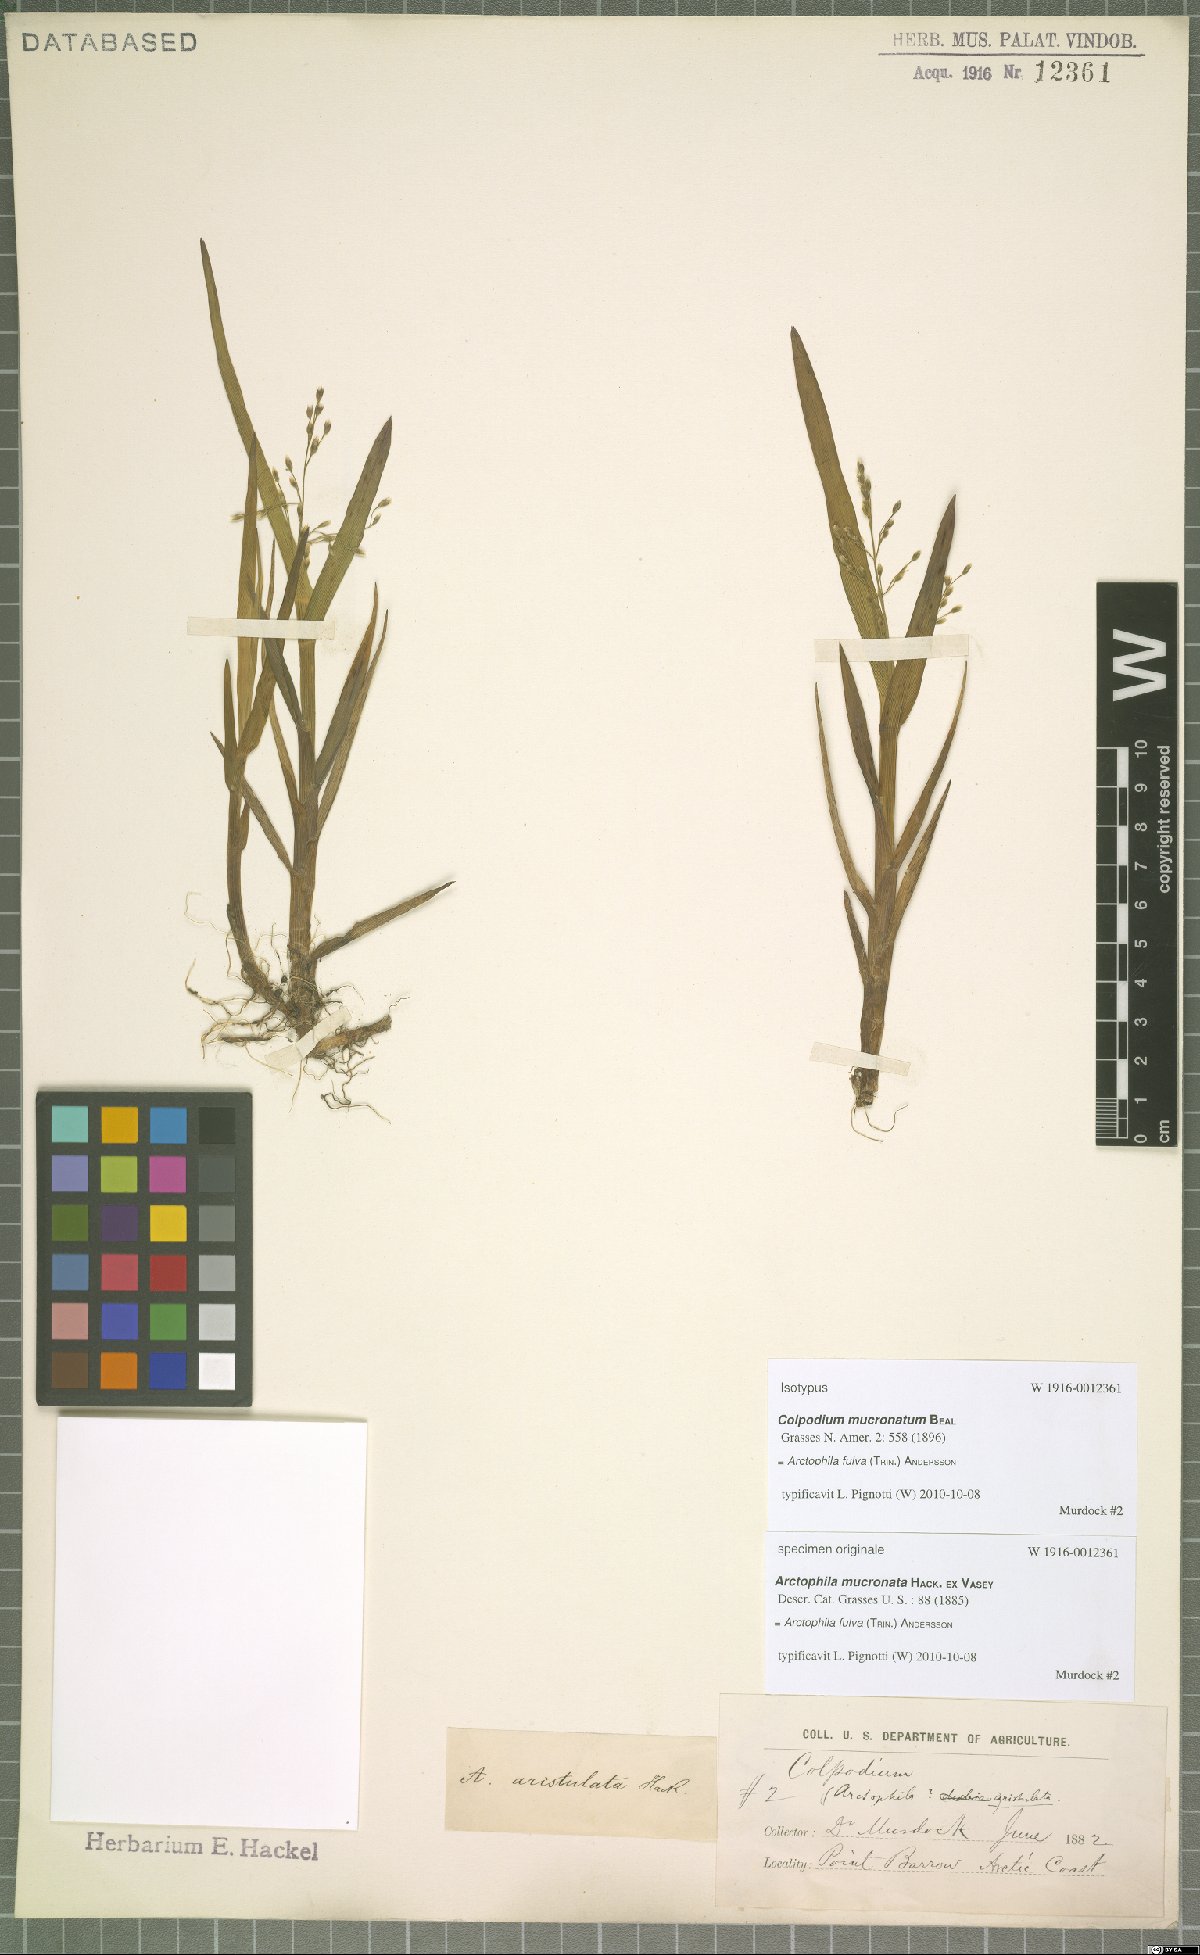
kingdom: Plantae
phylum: Tracheophyta
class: Liliopsida
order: Poales
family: Poaceae
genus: Dupontia
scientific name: Dupontia fulva
